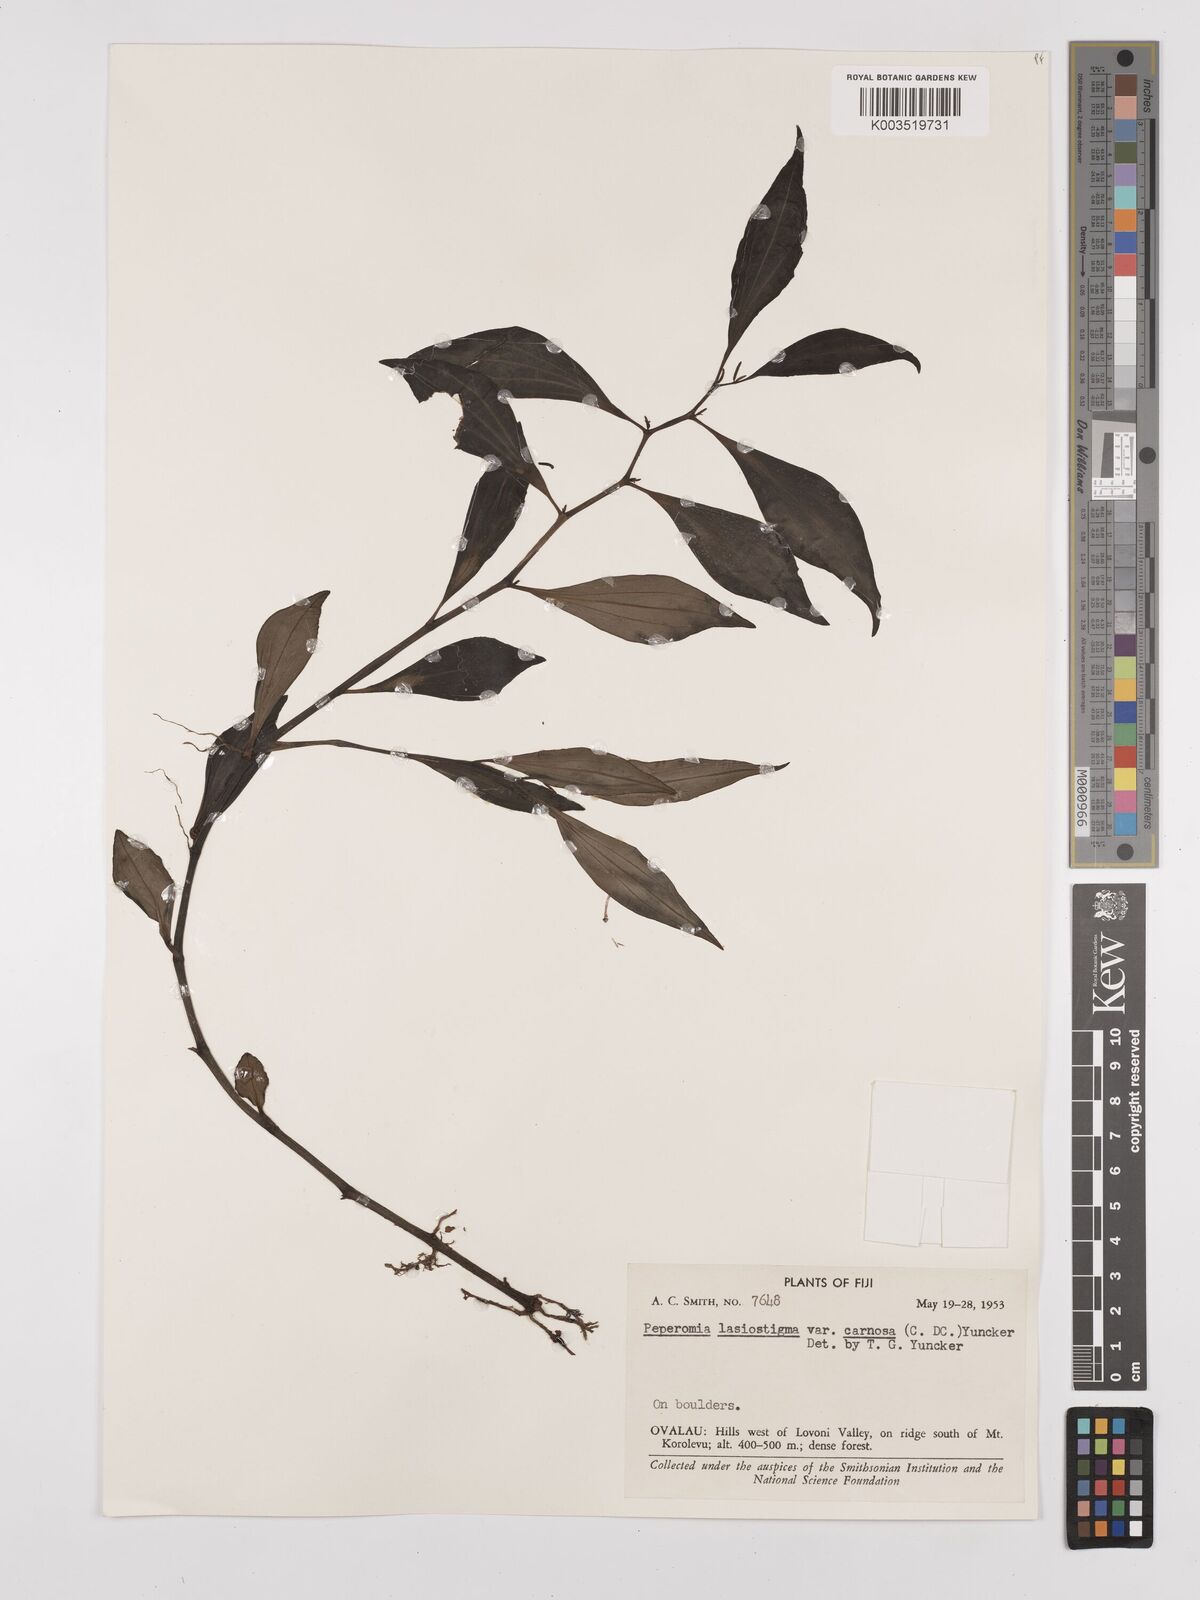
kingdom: Plantae
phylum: Tracheophyta
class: Magnoliopsida
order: Piperales
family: Piperaceae
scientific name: Piperaceae
